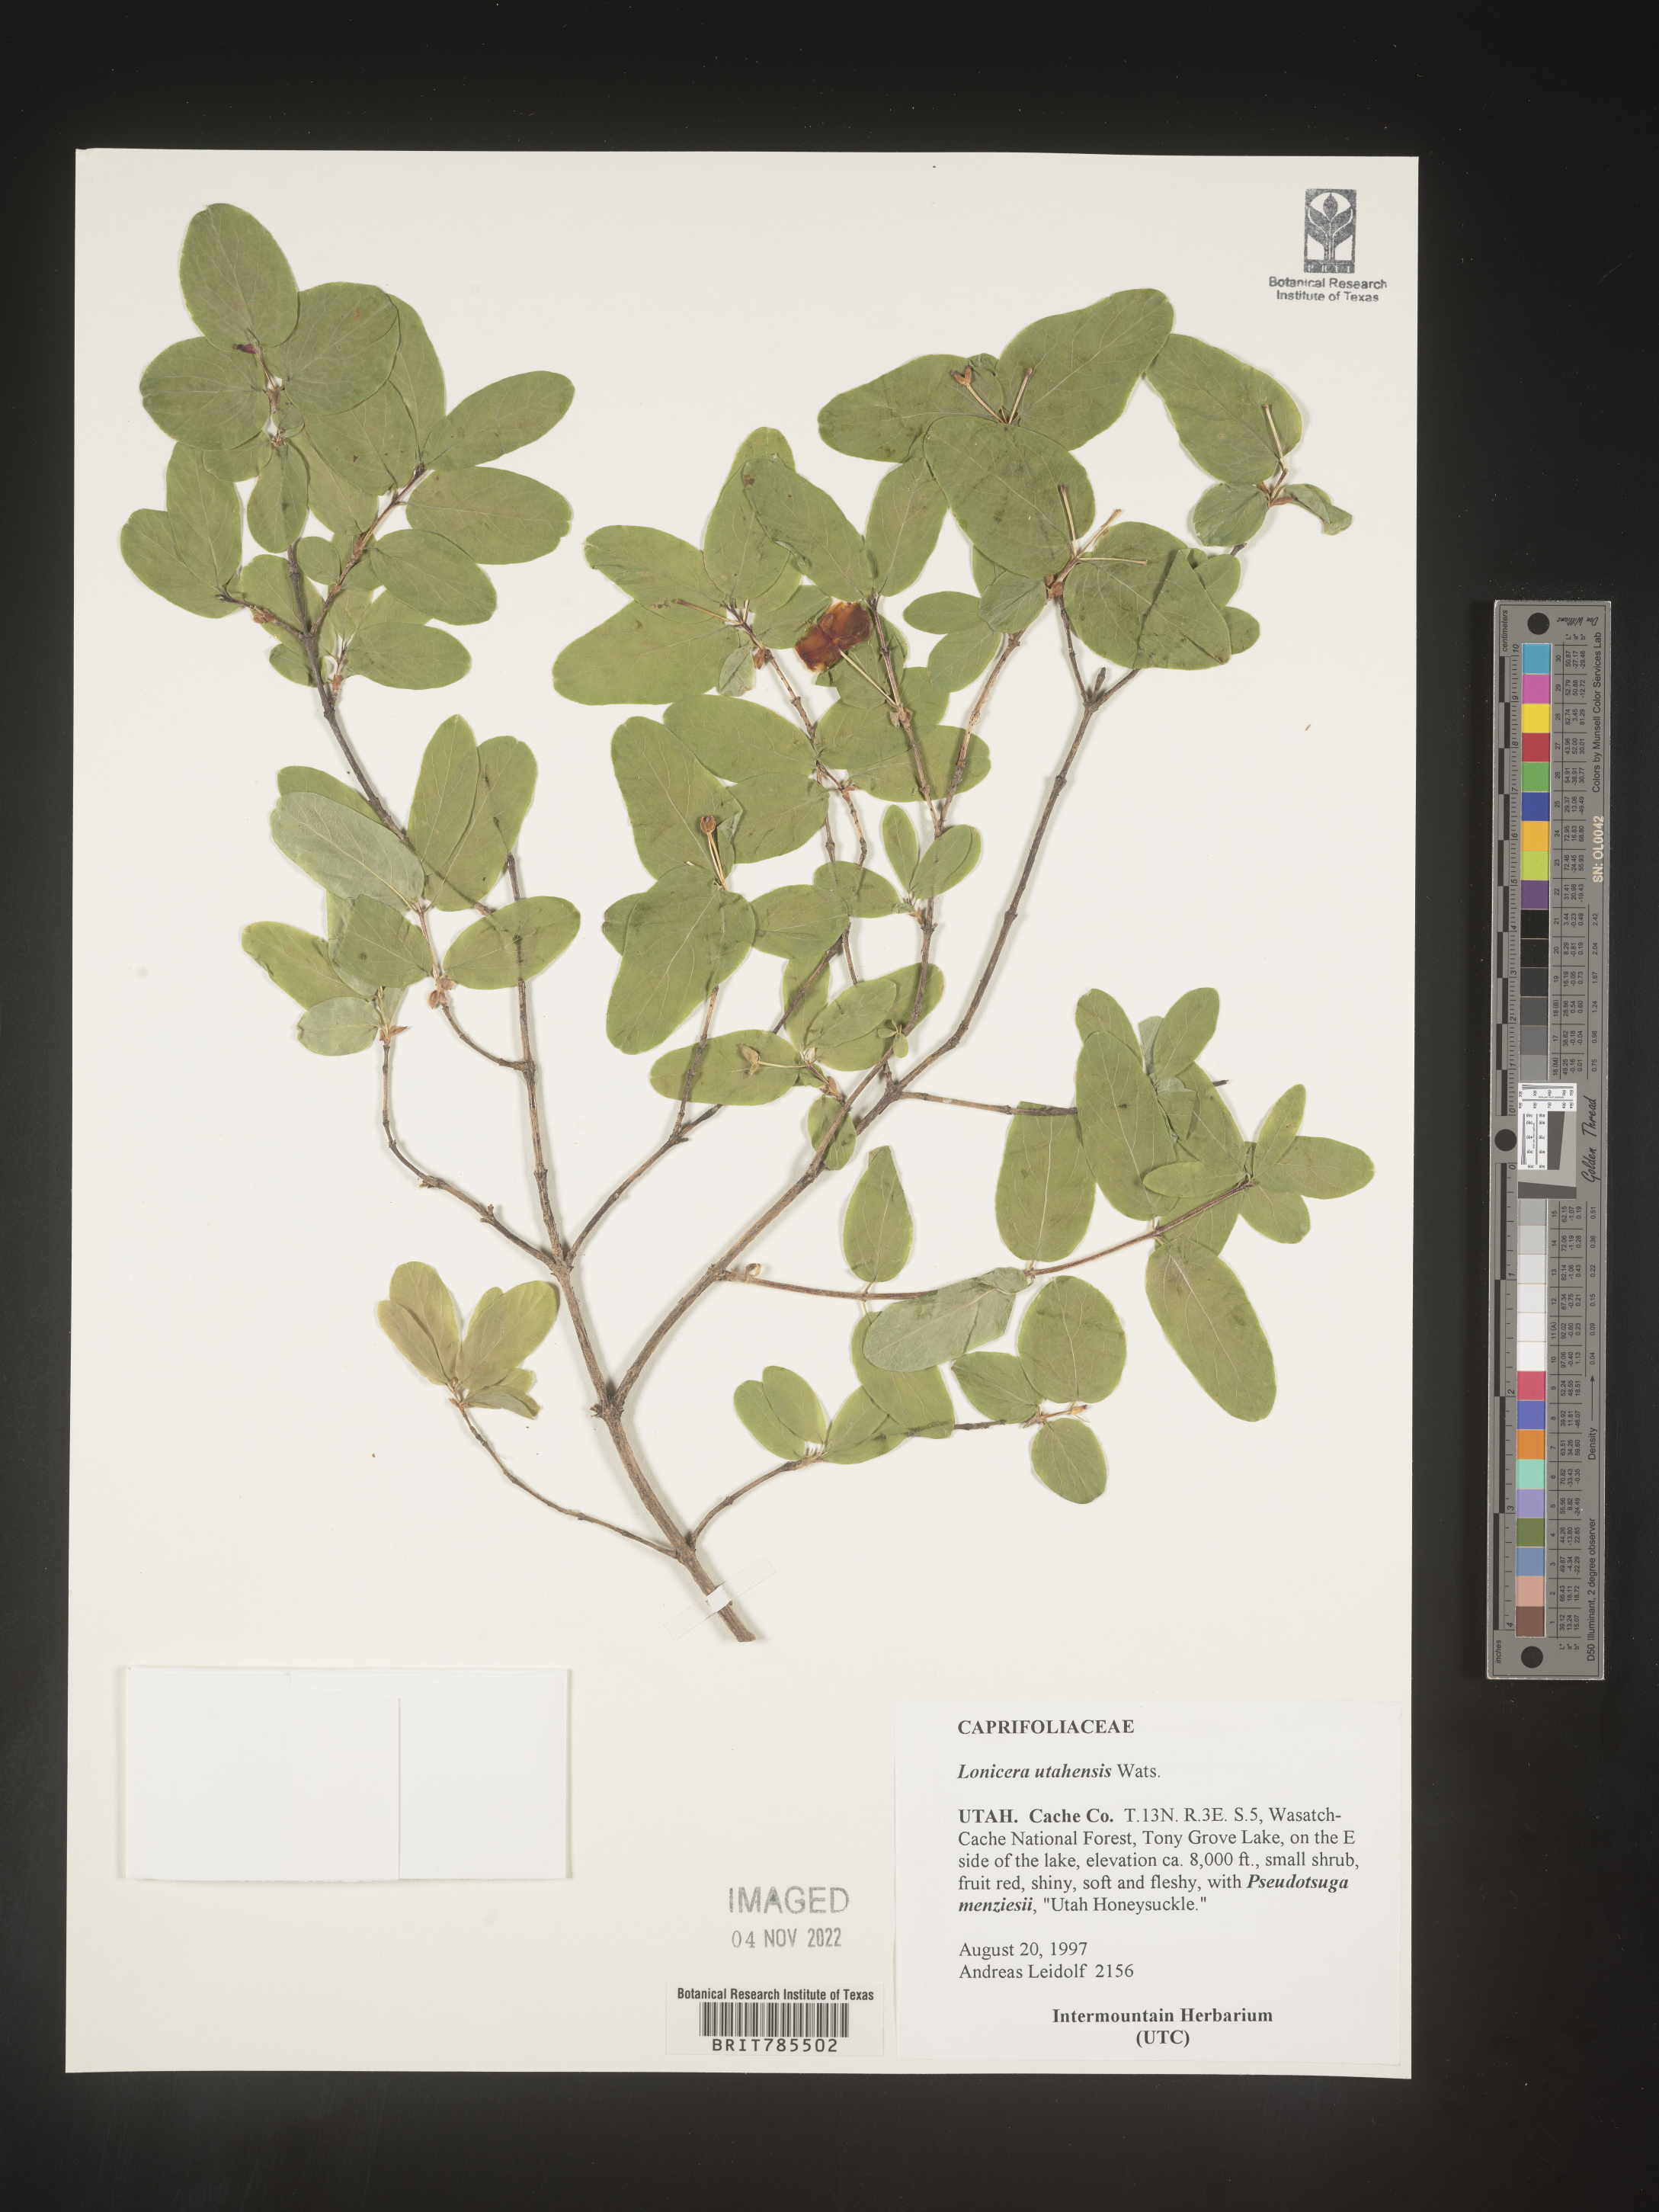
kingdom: Plantae
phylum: Tracheophyta
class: Magnoliopsida
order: Dipsacales
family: Caprifoliaceae
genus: Lonicera
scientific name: Lonicera utahensis
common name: Utah honeysuckle
